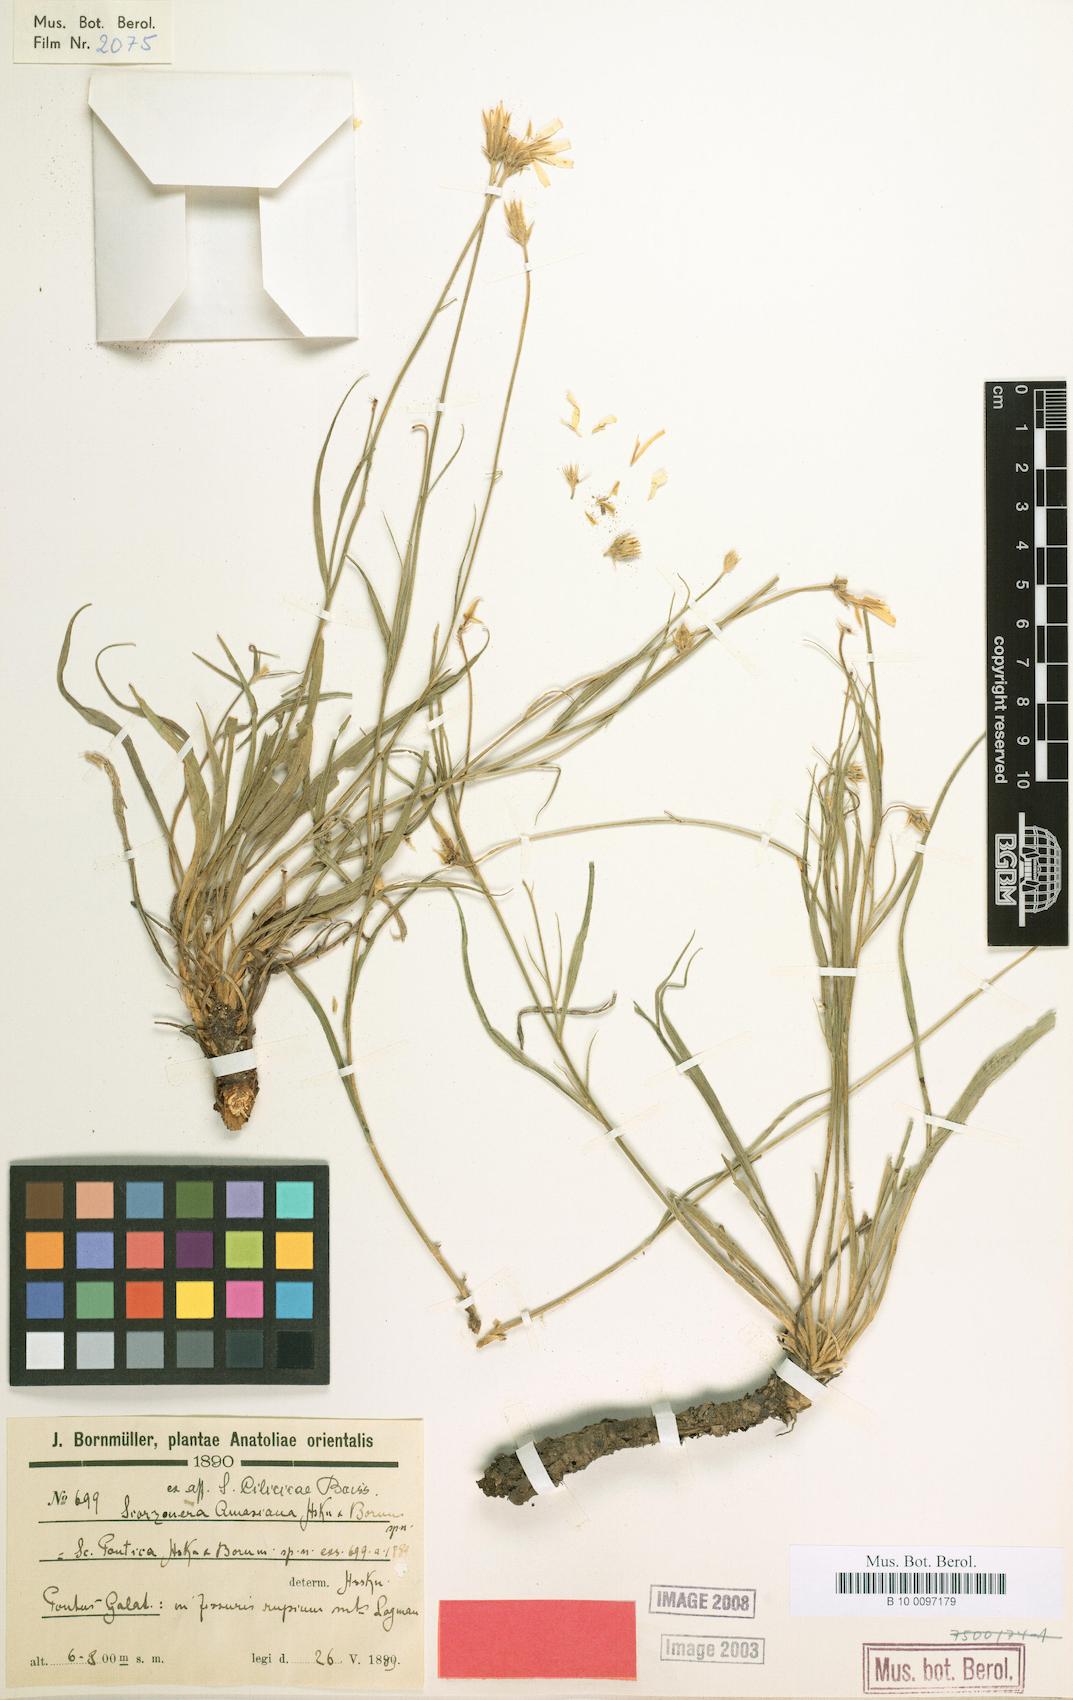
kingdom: Plantae
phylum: Tracheophyta
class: Magnoliopsida
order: Asterales
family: Asteraceae
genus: Ramaliella
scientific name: Ramaliella amasiana
